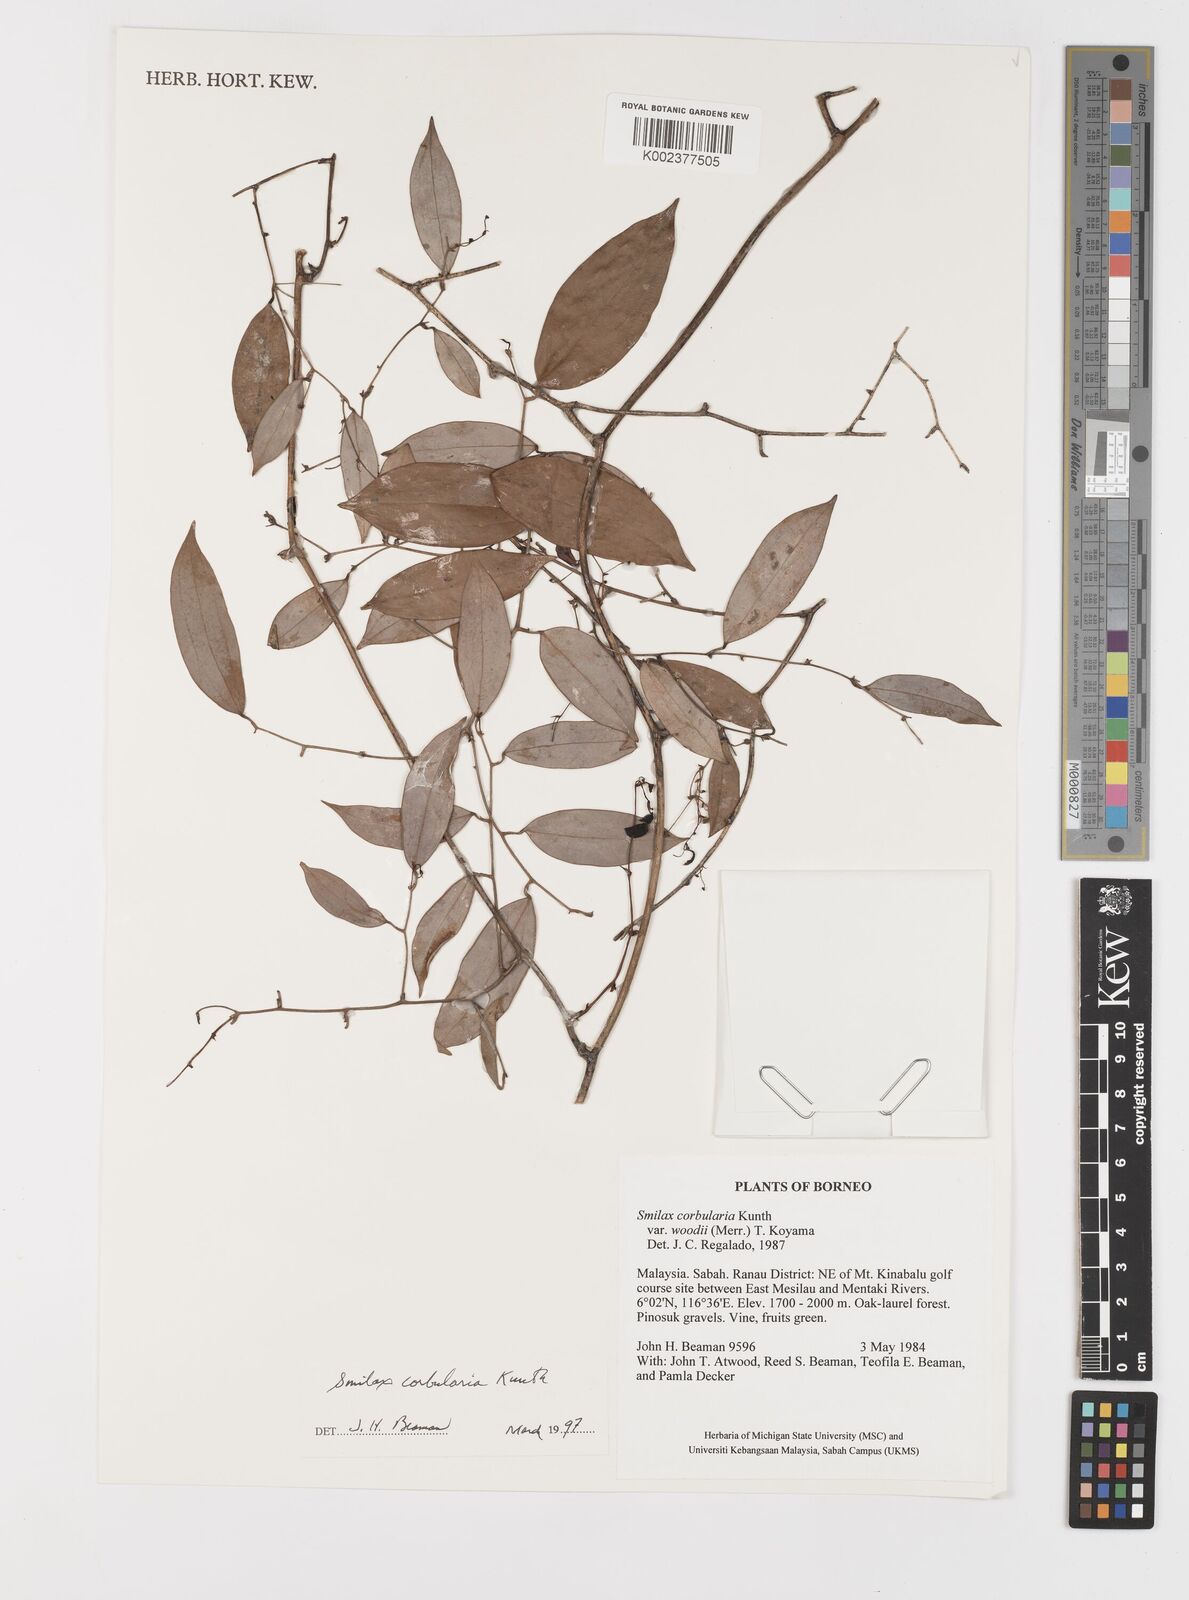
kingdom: Plantae
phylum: Tracheophyta
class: Liliopsida
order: Liliales
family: Smilacaceae
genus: Smilax
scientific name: Smilax corbularia
